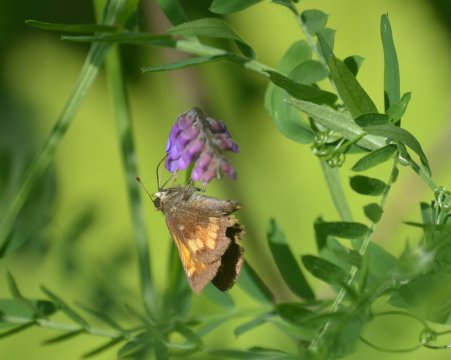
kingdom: Animalia
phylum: Arthropoda
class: Insecta
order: Lepidoptera
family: Hesperiidae
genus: Lon
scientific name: Lon hobomok
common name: Hobomok Skipper
